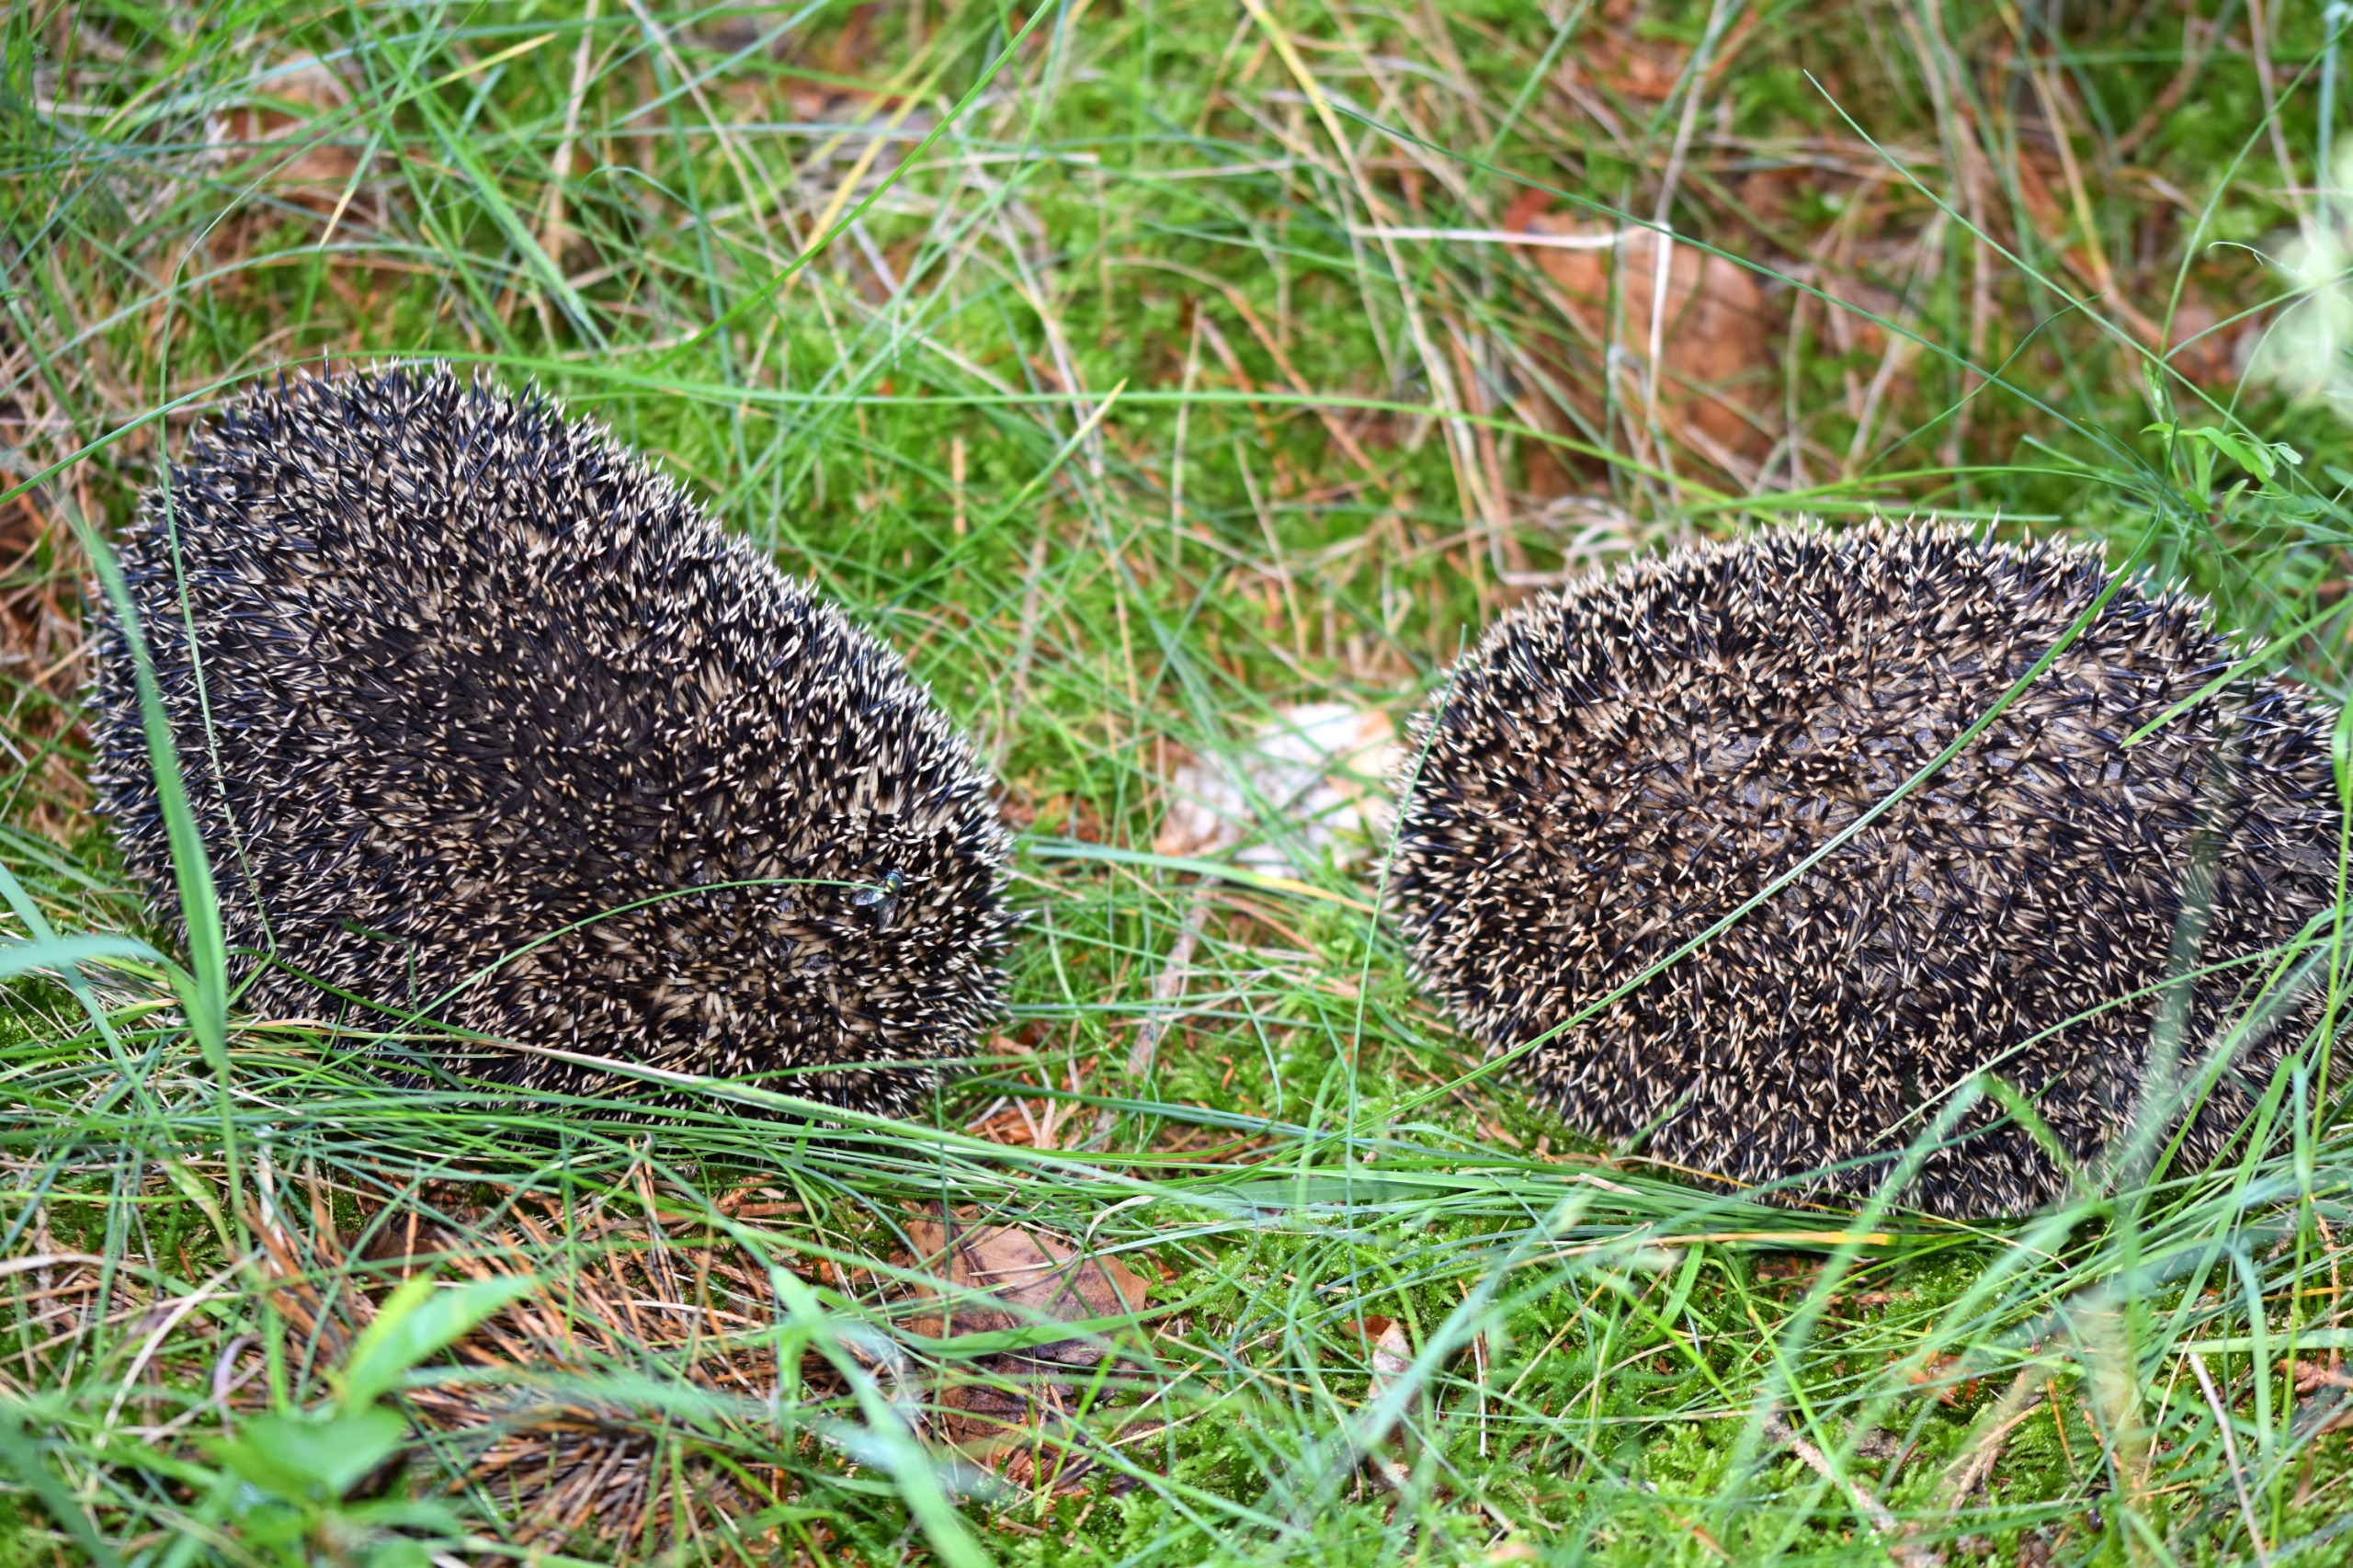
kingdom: Animalia
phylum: Chordata
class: Mammalia
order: Erinaceomorpha
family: Erinaceidae
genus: Erinaceus
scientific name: Erinaceus europaeus
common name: Pindsvin
